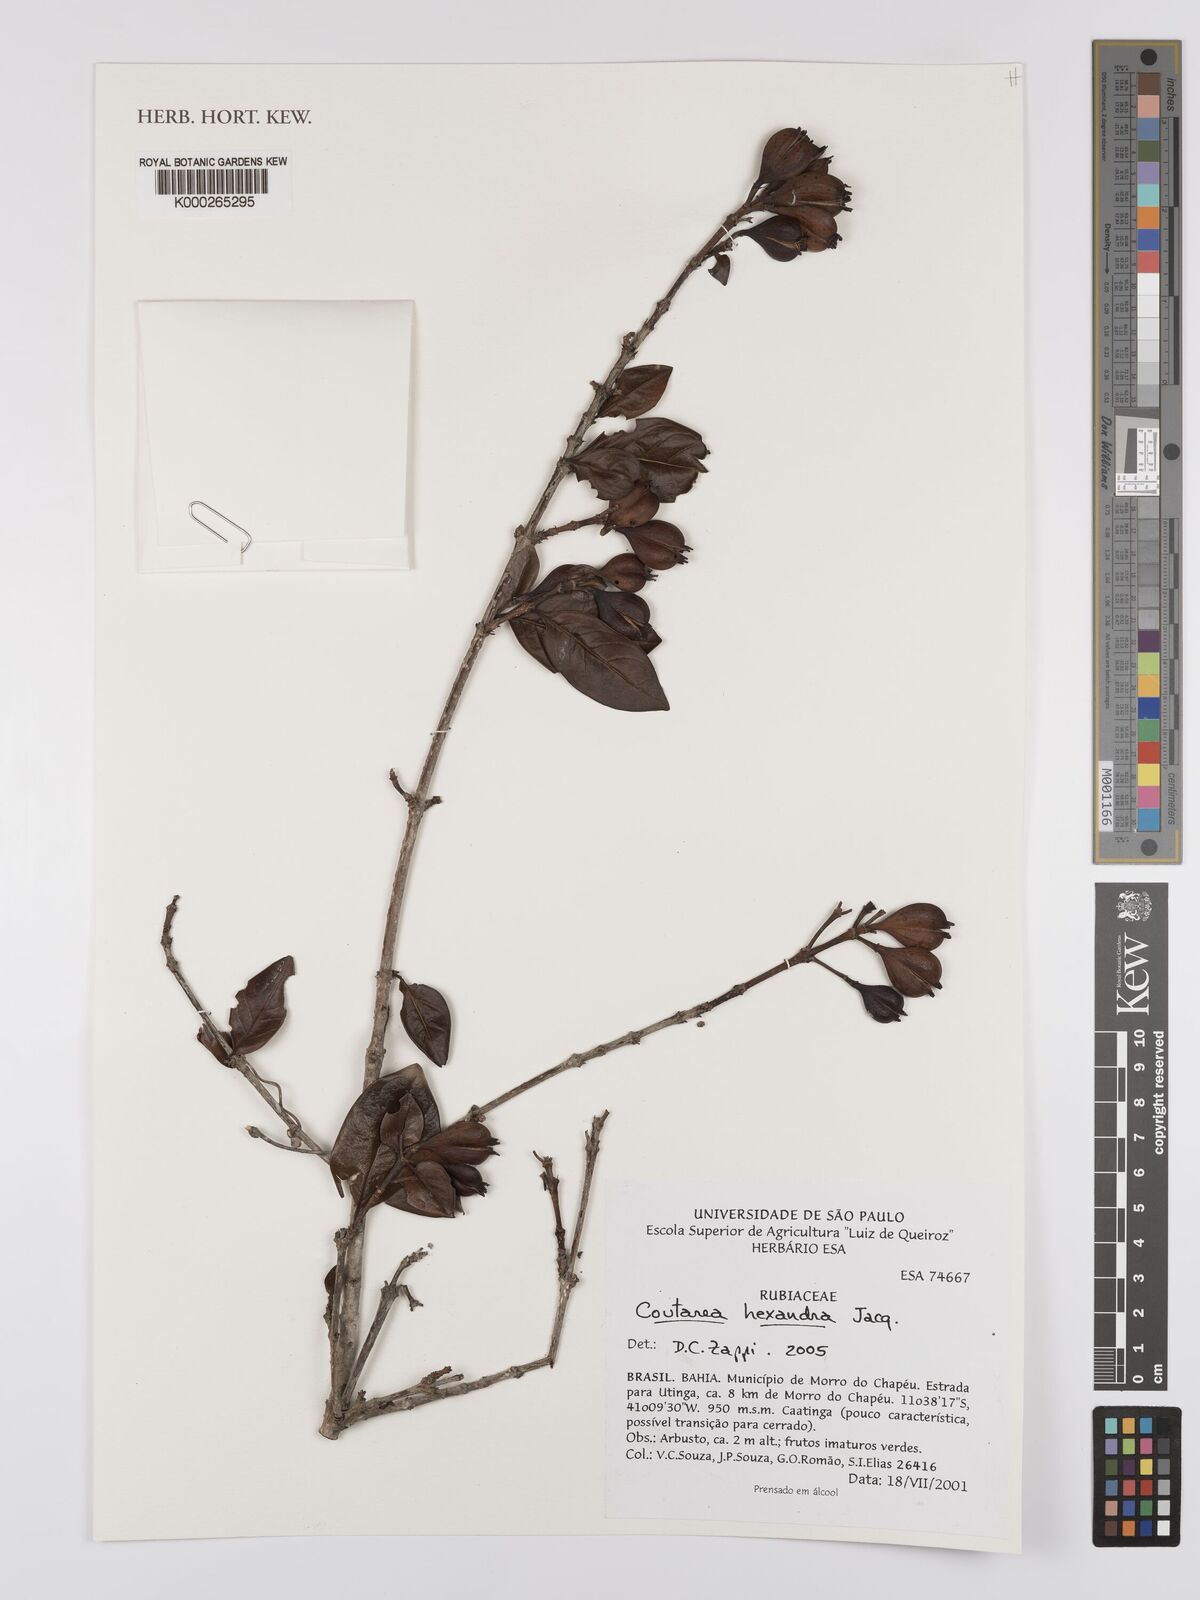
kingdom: Plantae
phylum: Tracheophyta
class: Magnoliopsida
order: Gentianales
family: Rubiaceae
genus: Coutarea
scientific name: Coutarea hexandra
